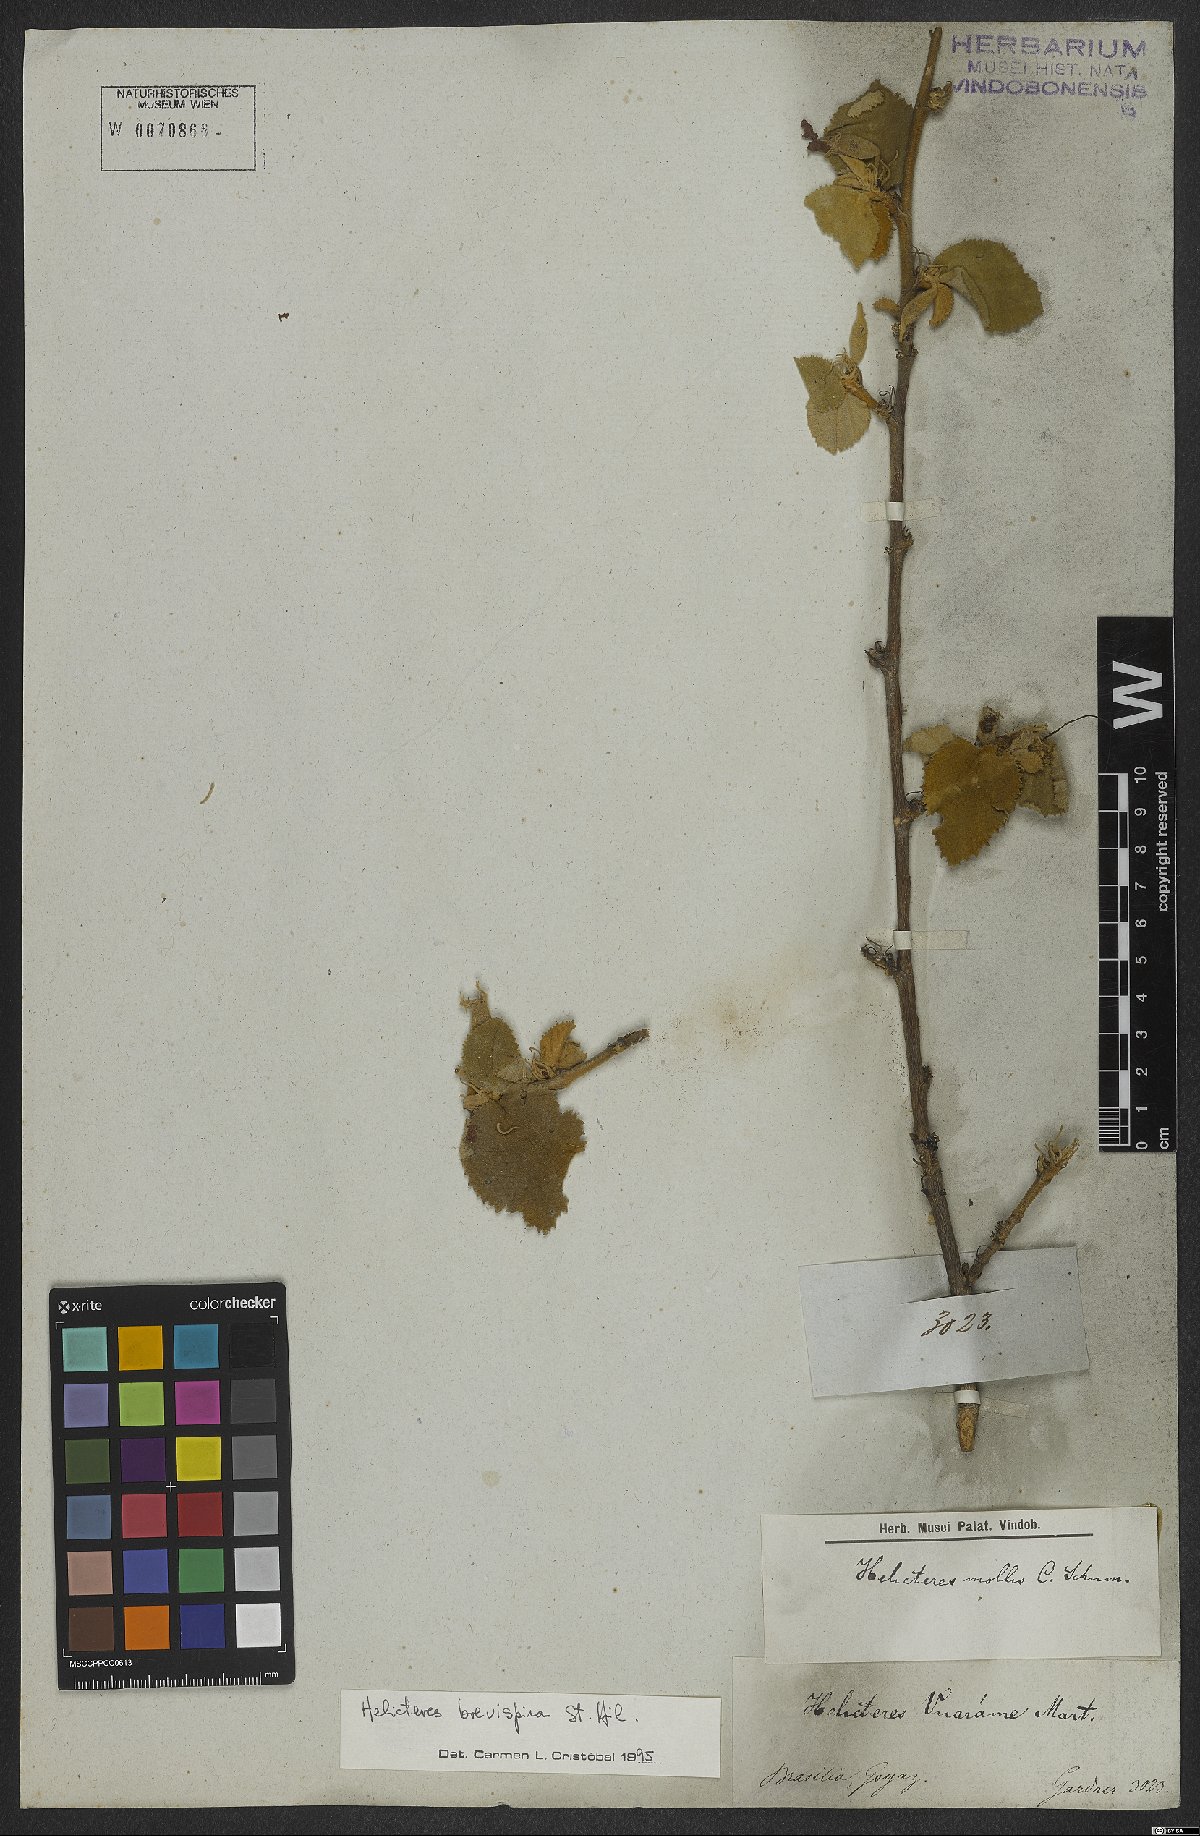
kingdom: Plantae
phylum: Tracheophyta
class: Magnoliopsida
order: Malvales
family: Malvaceae
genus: Helicteres
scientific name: Helicteres brevispira
